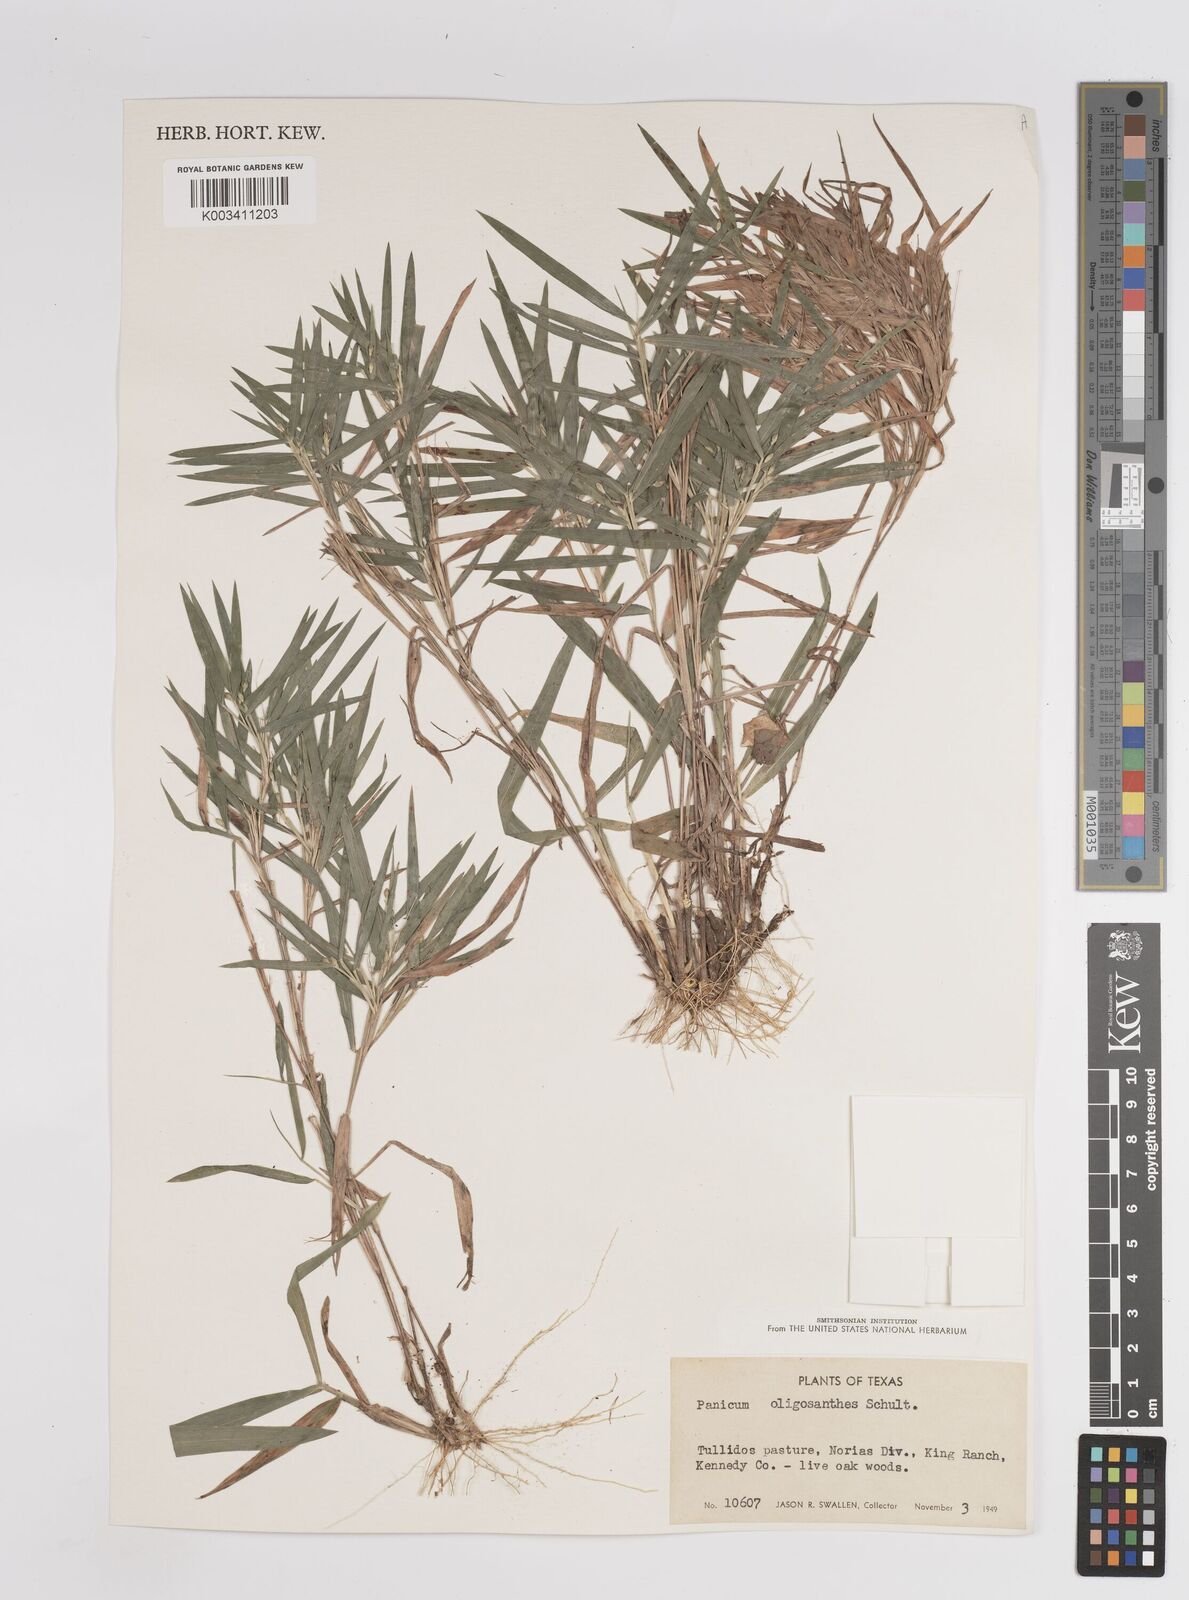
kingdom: Plantae
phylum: Tracheophyta
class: Liliopsida
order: Poales
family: Poaceae
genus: Dichanthelium
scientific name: Dichanthelium oligosanthes
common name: Few-anther obscuregrass
